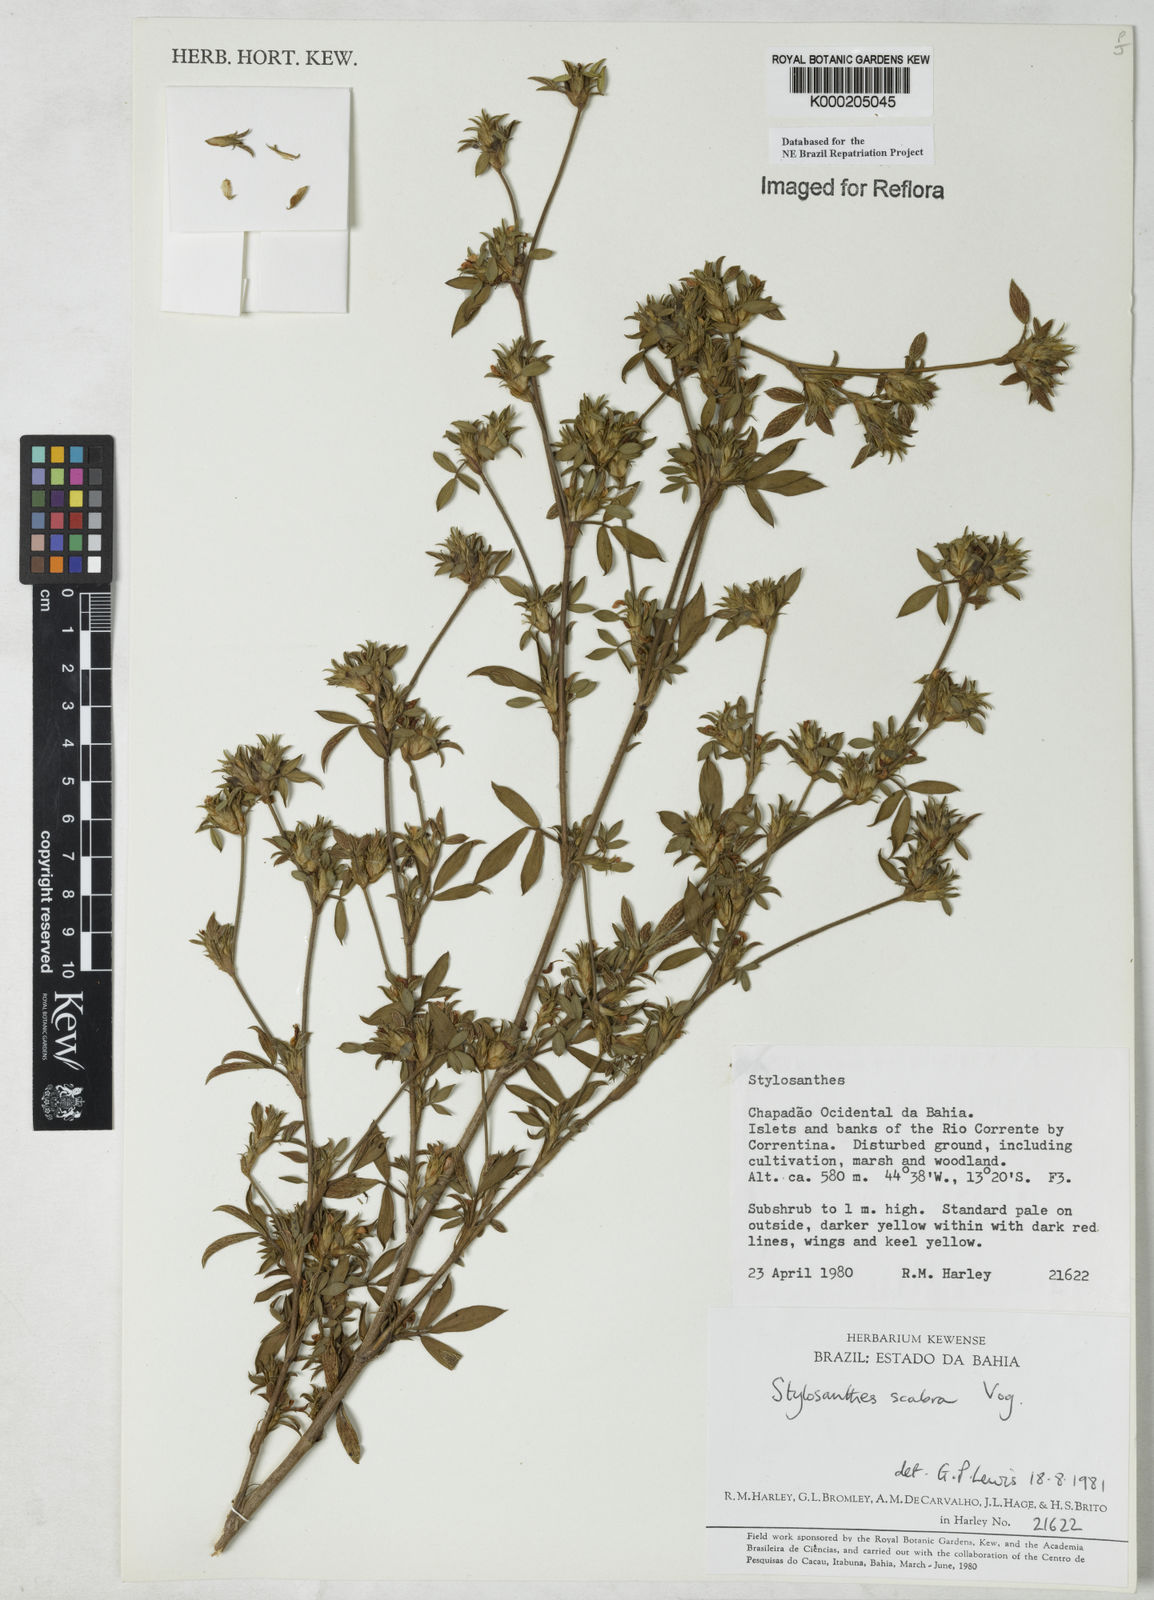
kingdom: Plantae
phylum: Tracheophyta
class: Magnoliopsida
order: Fabales
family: Fabaceae
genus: Stylosanthes
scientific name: Stylosanthes scabra
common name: Pencilflower
